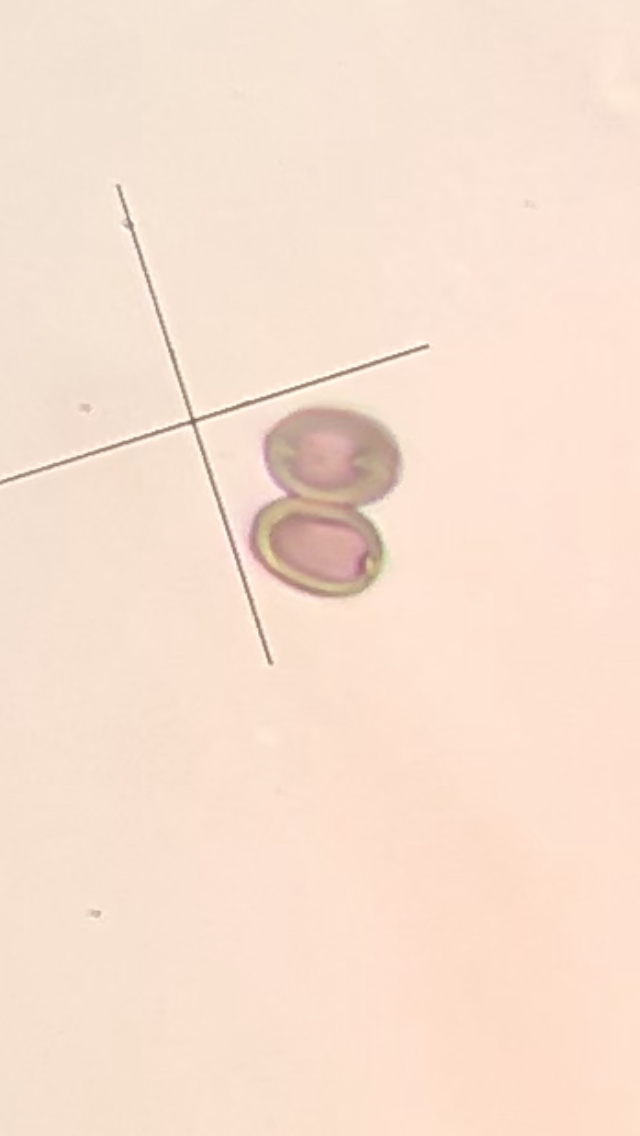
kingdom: Fungi
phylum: Basidiomycota
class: Agaricomycetes
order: Agaricales
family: Strophariaceae
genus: Deconica
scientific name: Deconica montana
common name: rødbrun stråhat
